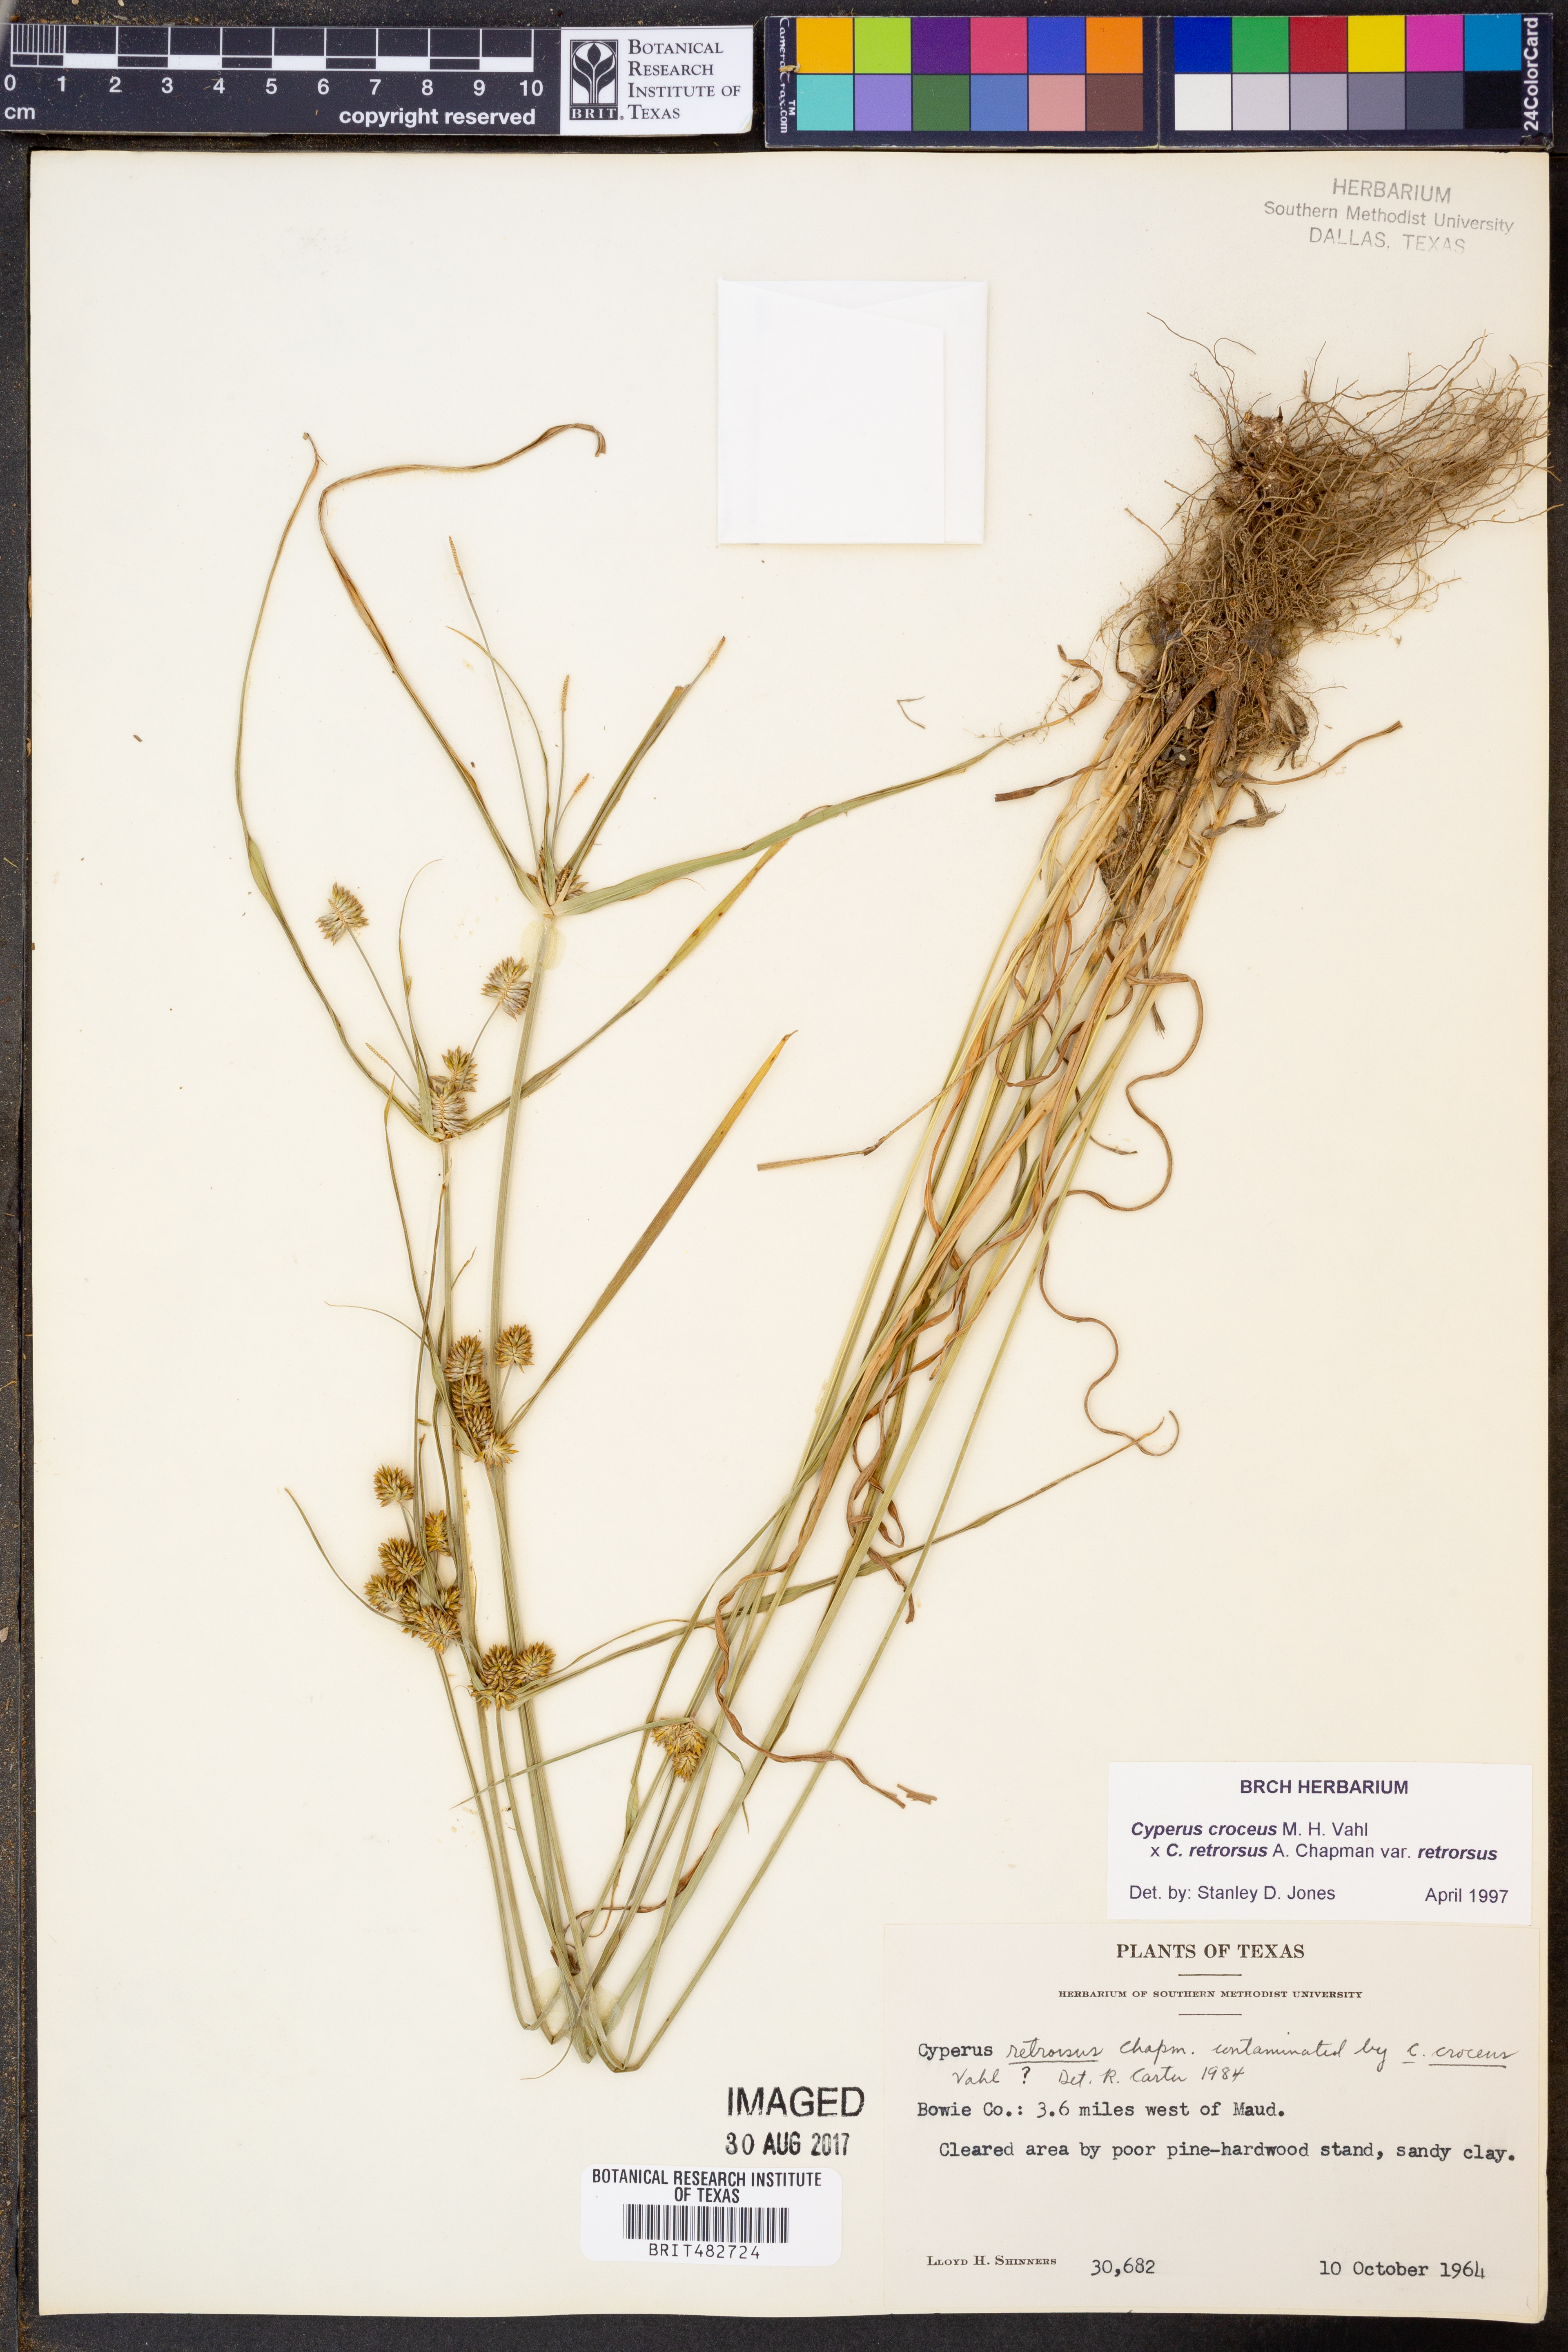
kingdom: Plantae
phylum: Tracheophyta
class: Liliopsida
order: Poales
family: Cyperaceae
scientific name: Cyperaceae
